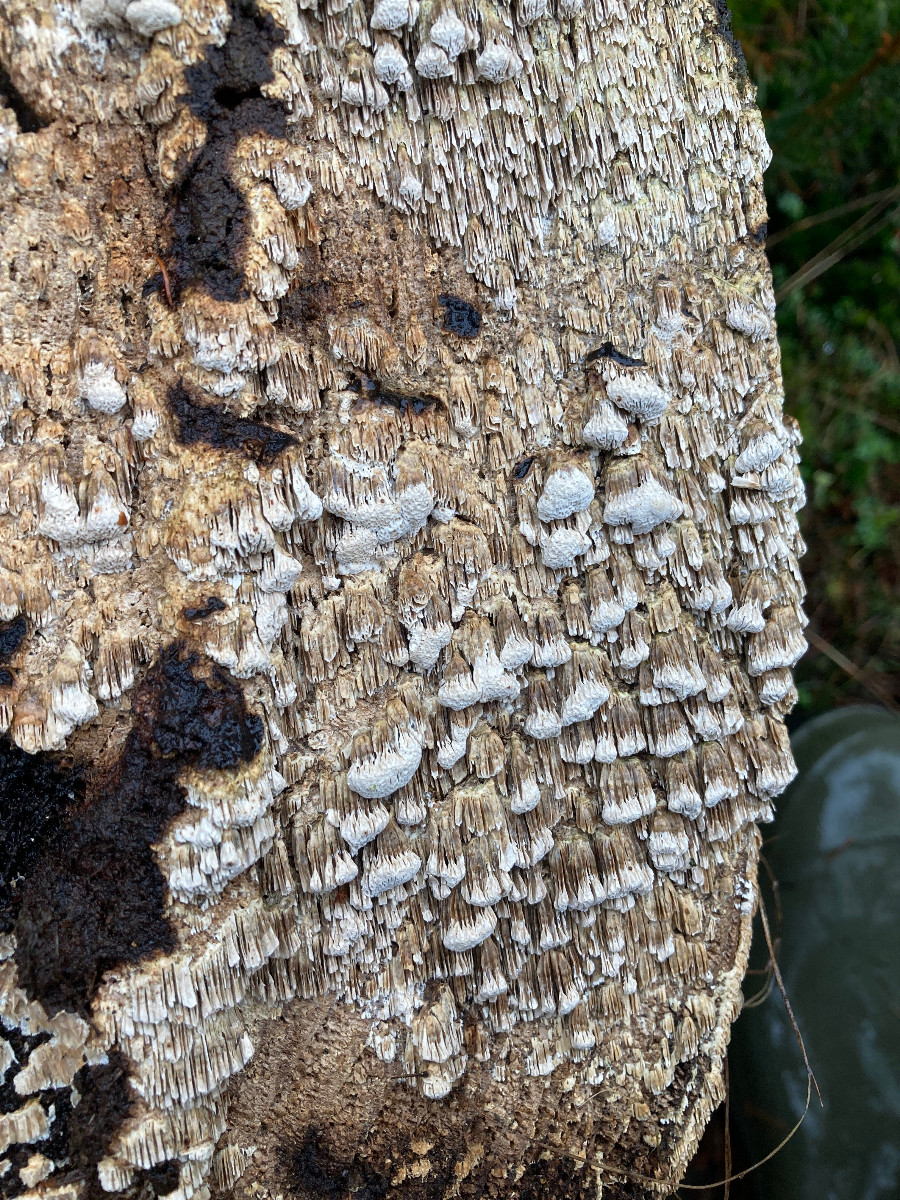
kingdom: Fungi
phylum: Basidiomycota
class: Agaricomycetes
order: Polyporales
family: Fomitopsidaceae
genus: Neoantrodia
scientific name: Neoantrodia serialis
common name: række-sejporesvamp
